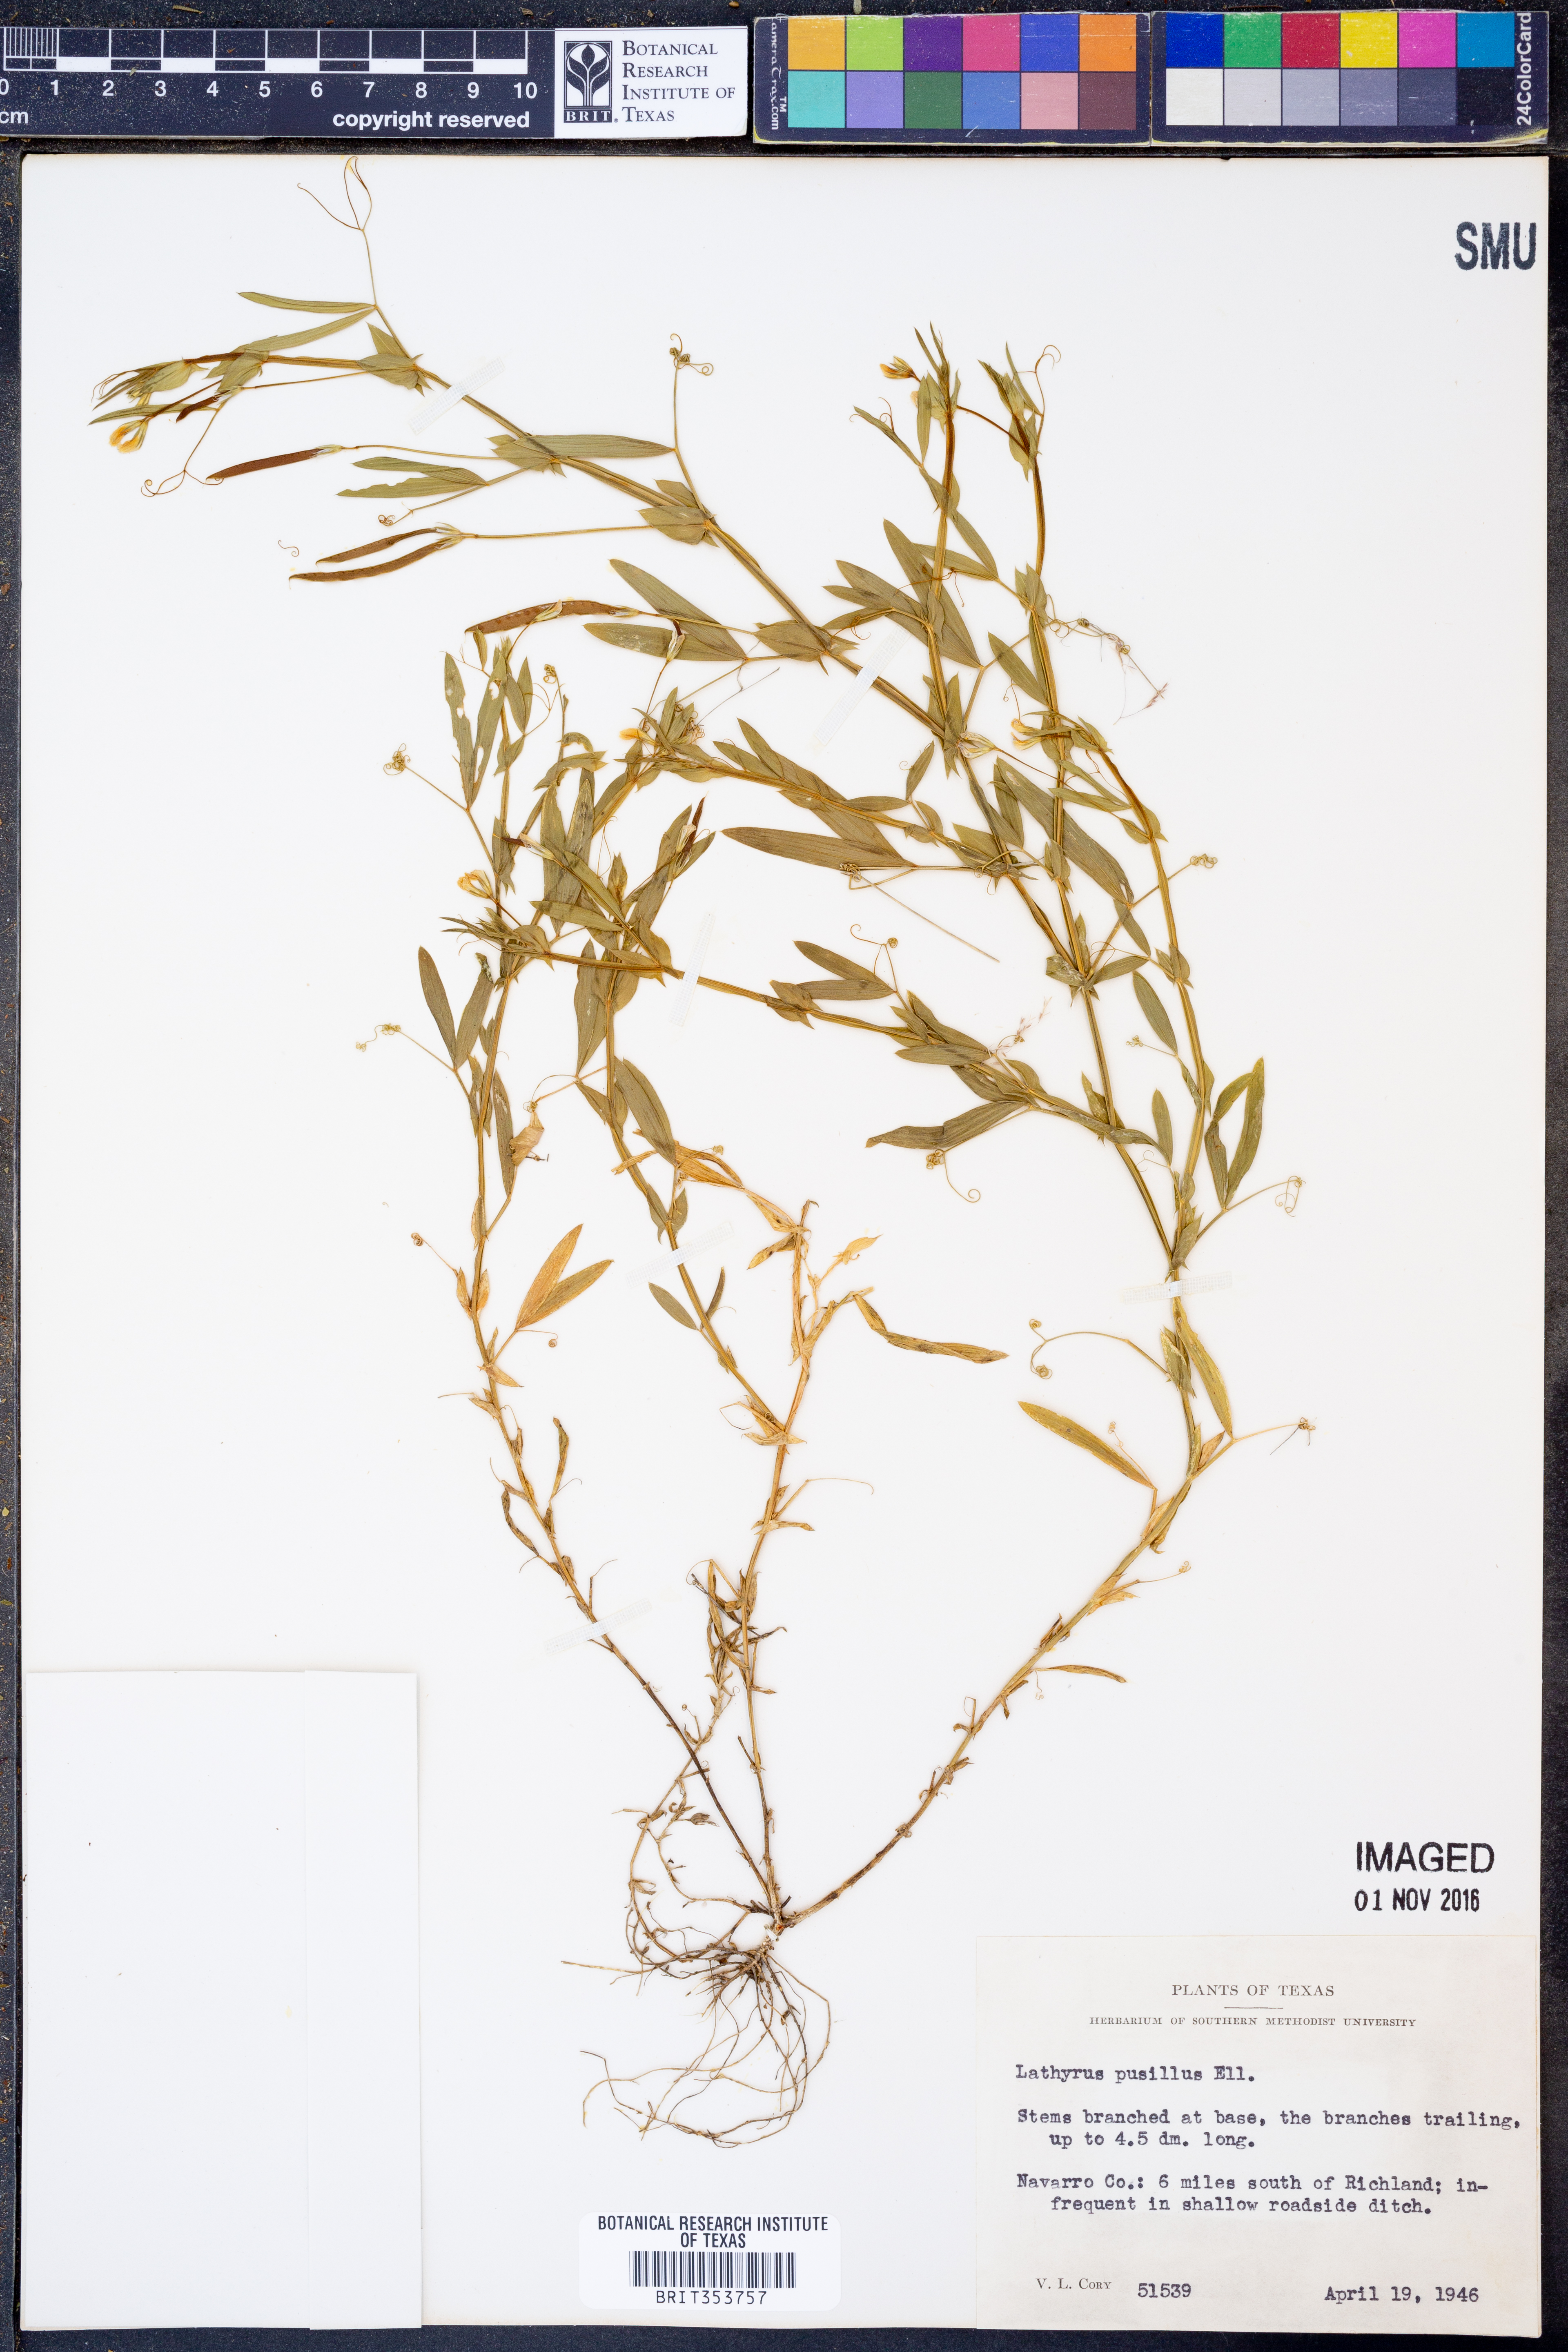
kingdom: Plantae
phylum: Tracheophyta
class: Magnoliopsida
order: Fabales
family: Fabaceae
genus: Lathyrus
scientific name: Lathyrus pusillus
